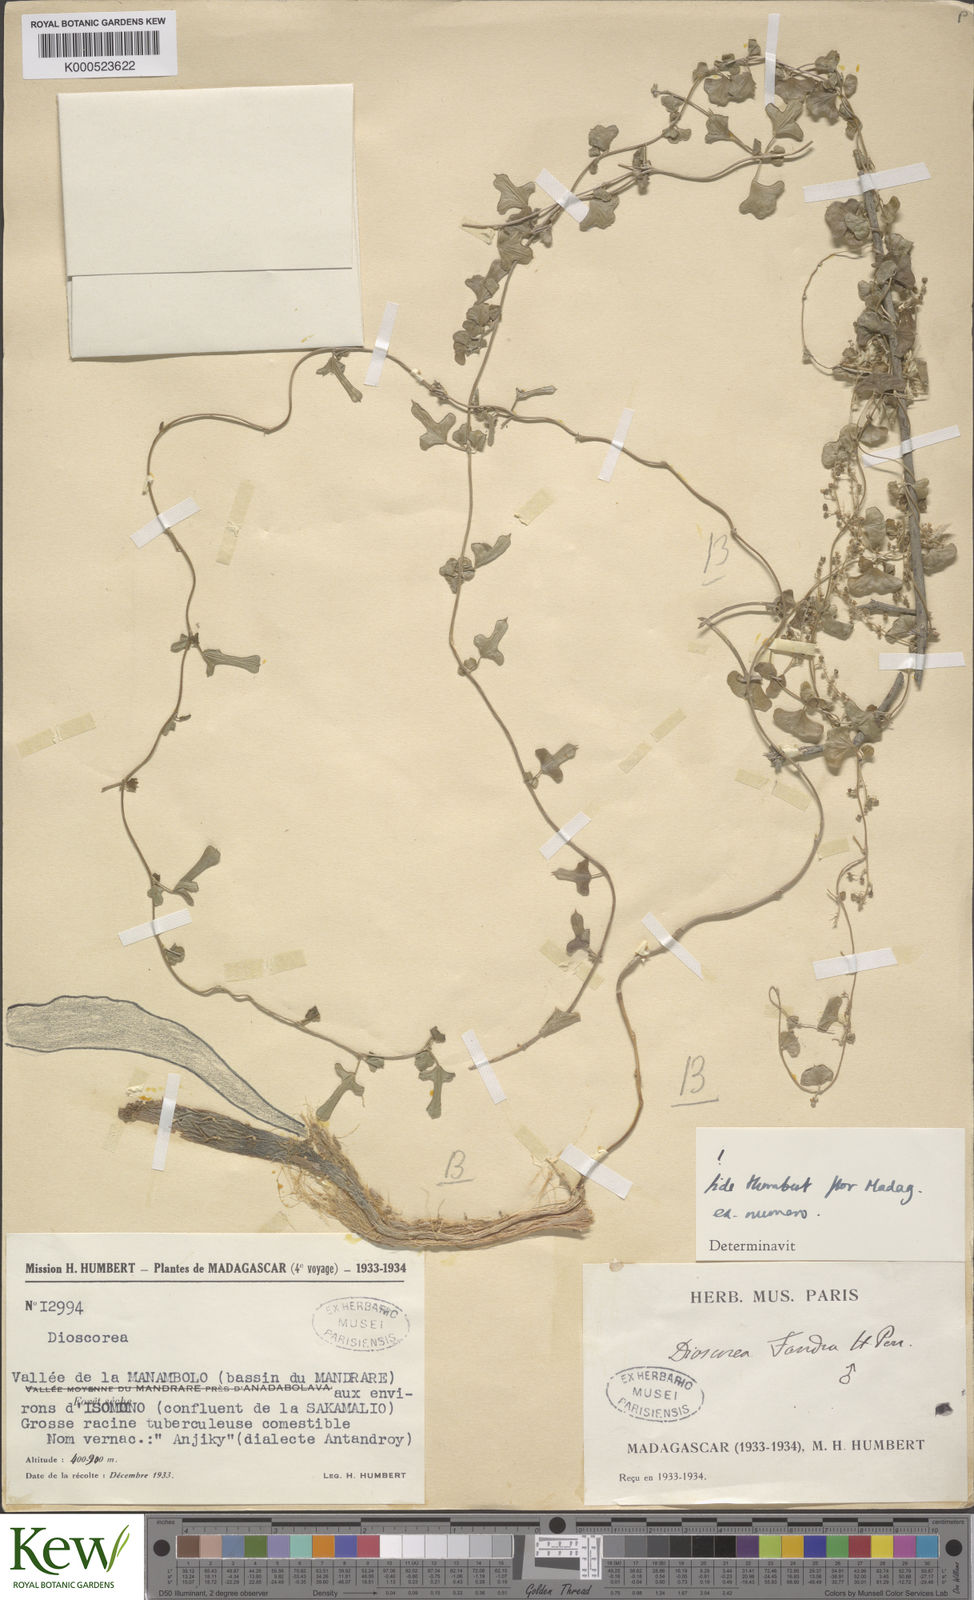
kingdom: Plantae
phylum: Tracheophyta
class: Liliopsida
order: Dioscoreales
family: Dioscoreaceae
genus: Dioscorea
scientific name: Dioscorea fandra
